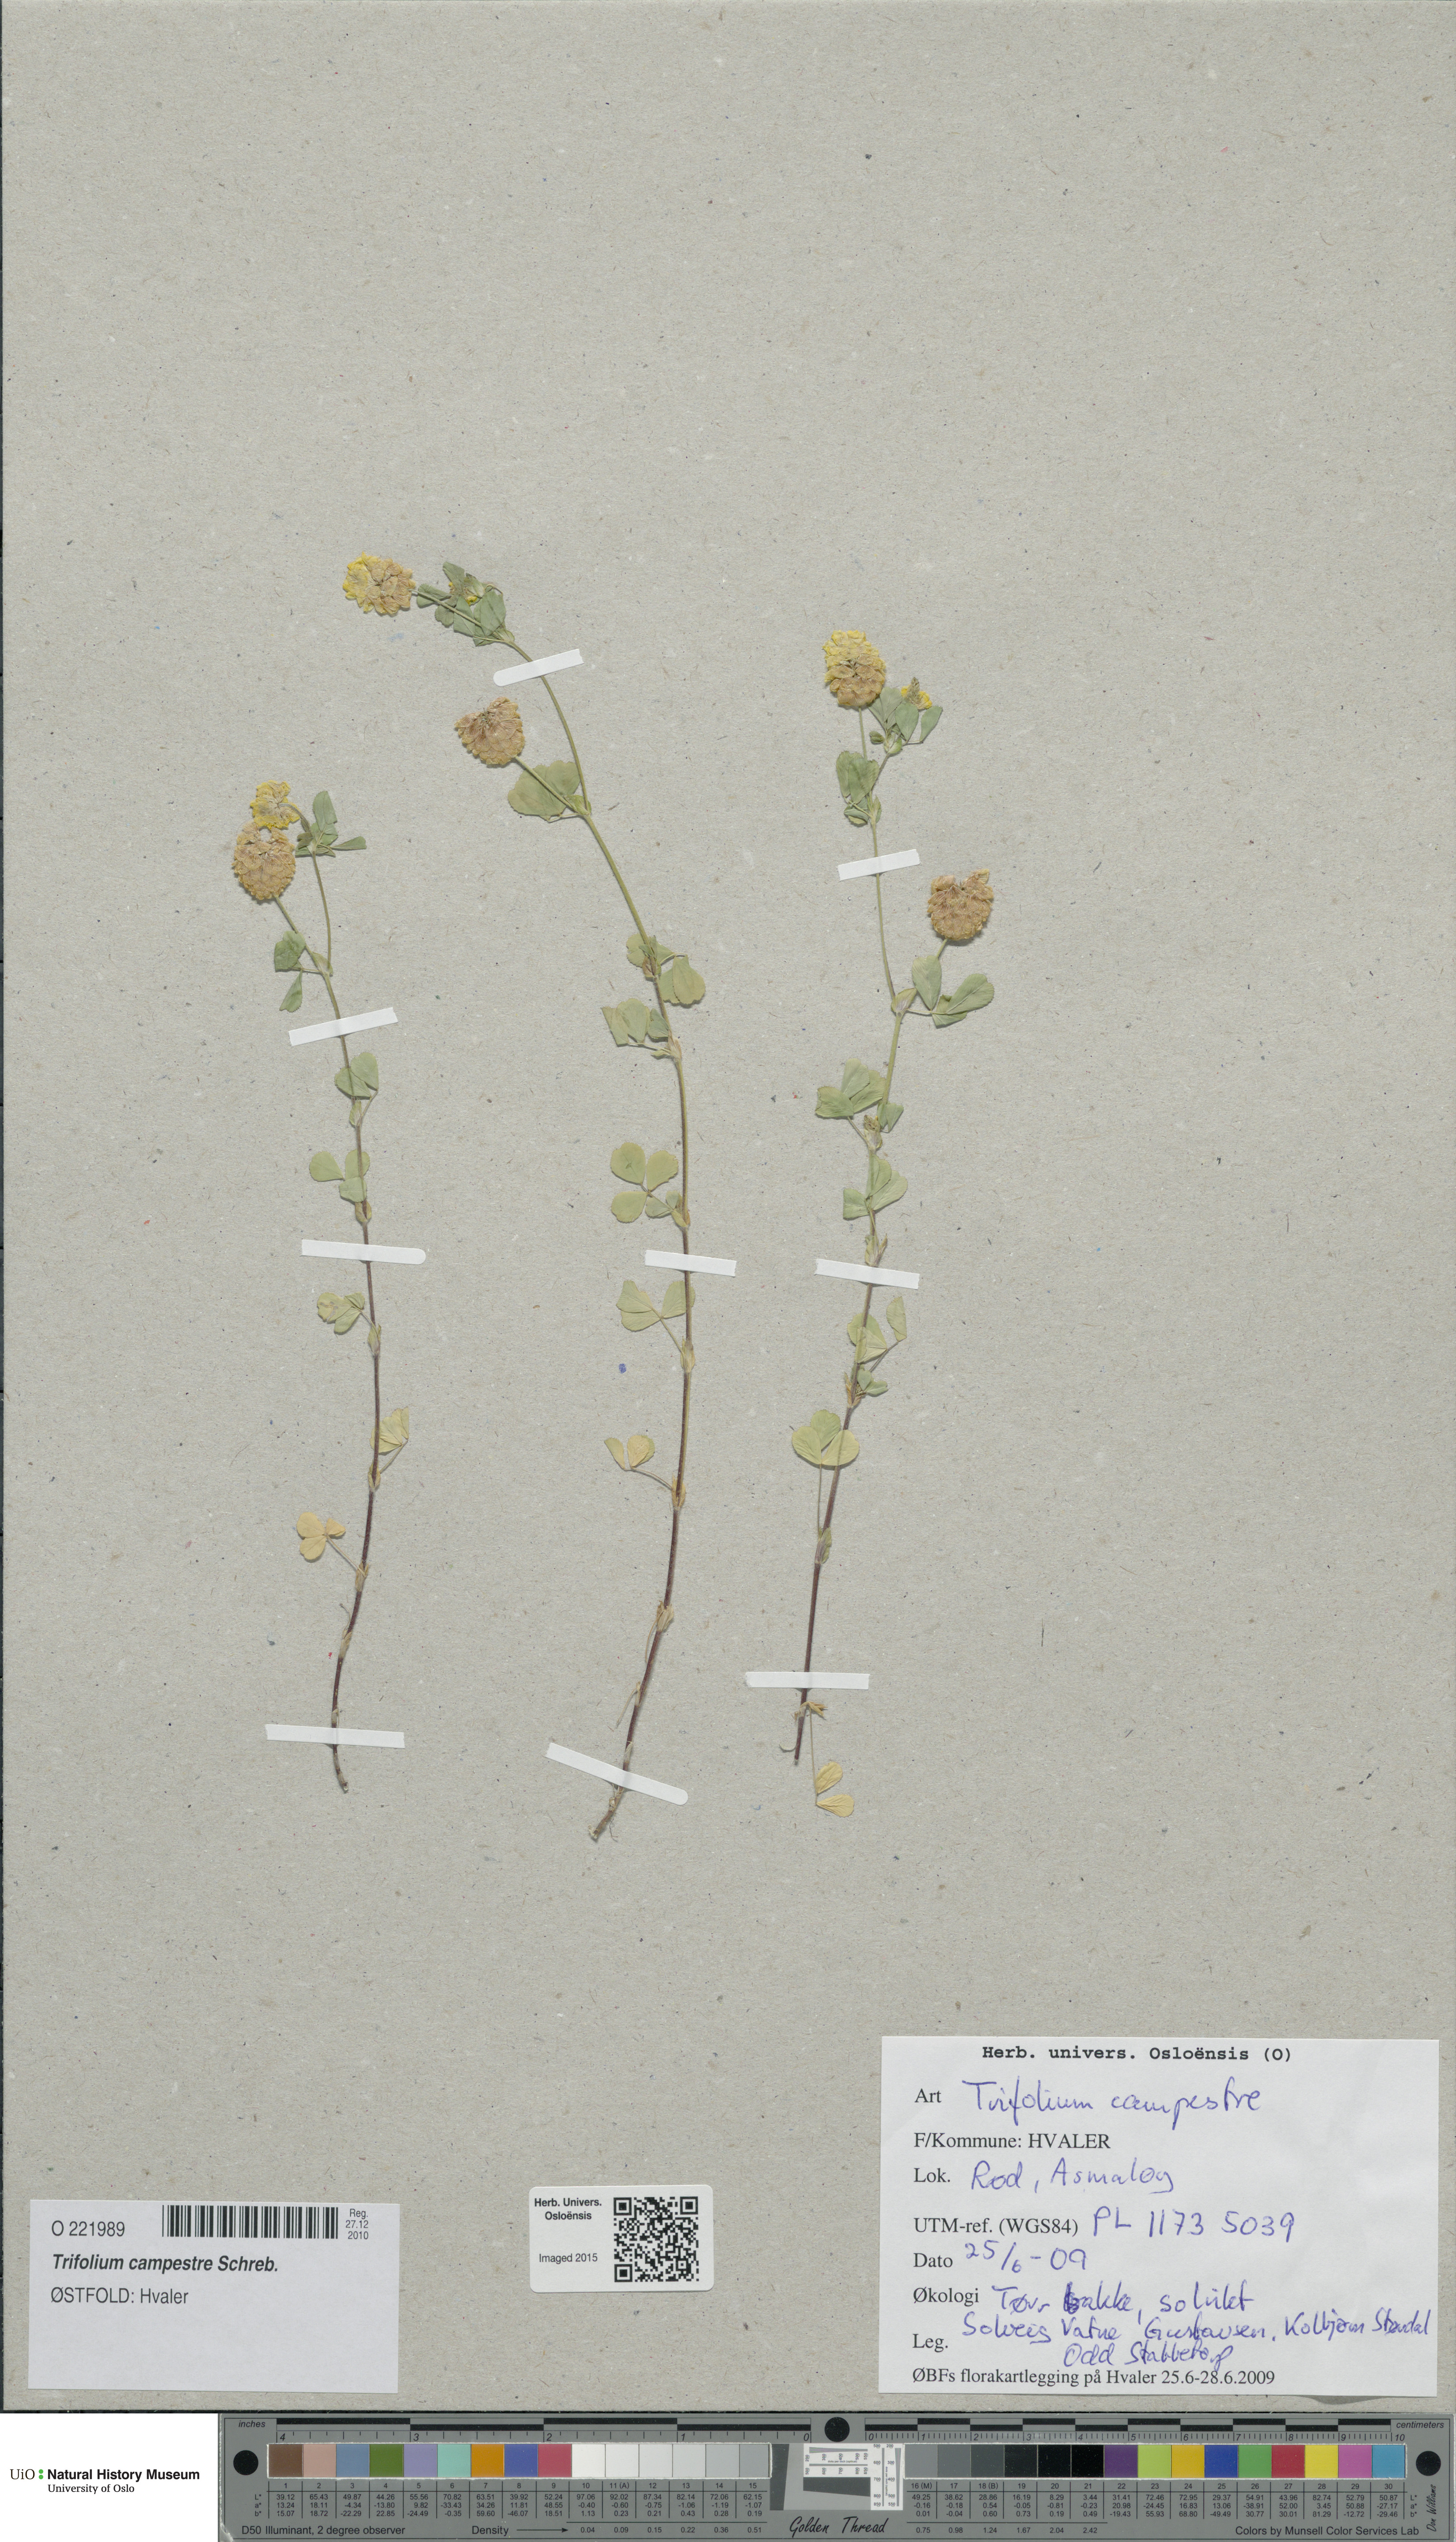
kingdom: Plantae
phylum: Tracheophyta
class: Magnoliopsida
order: Fabales
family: Fabaceae
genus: Trifolium
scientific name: Trifolium campestre
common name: Field clover
